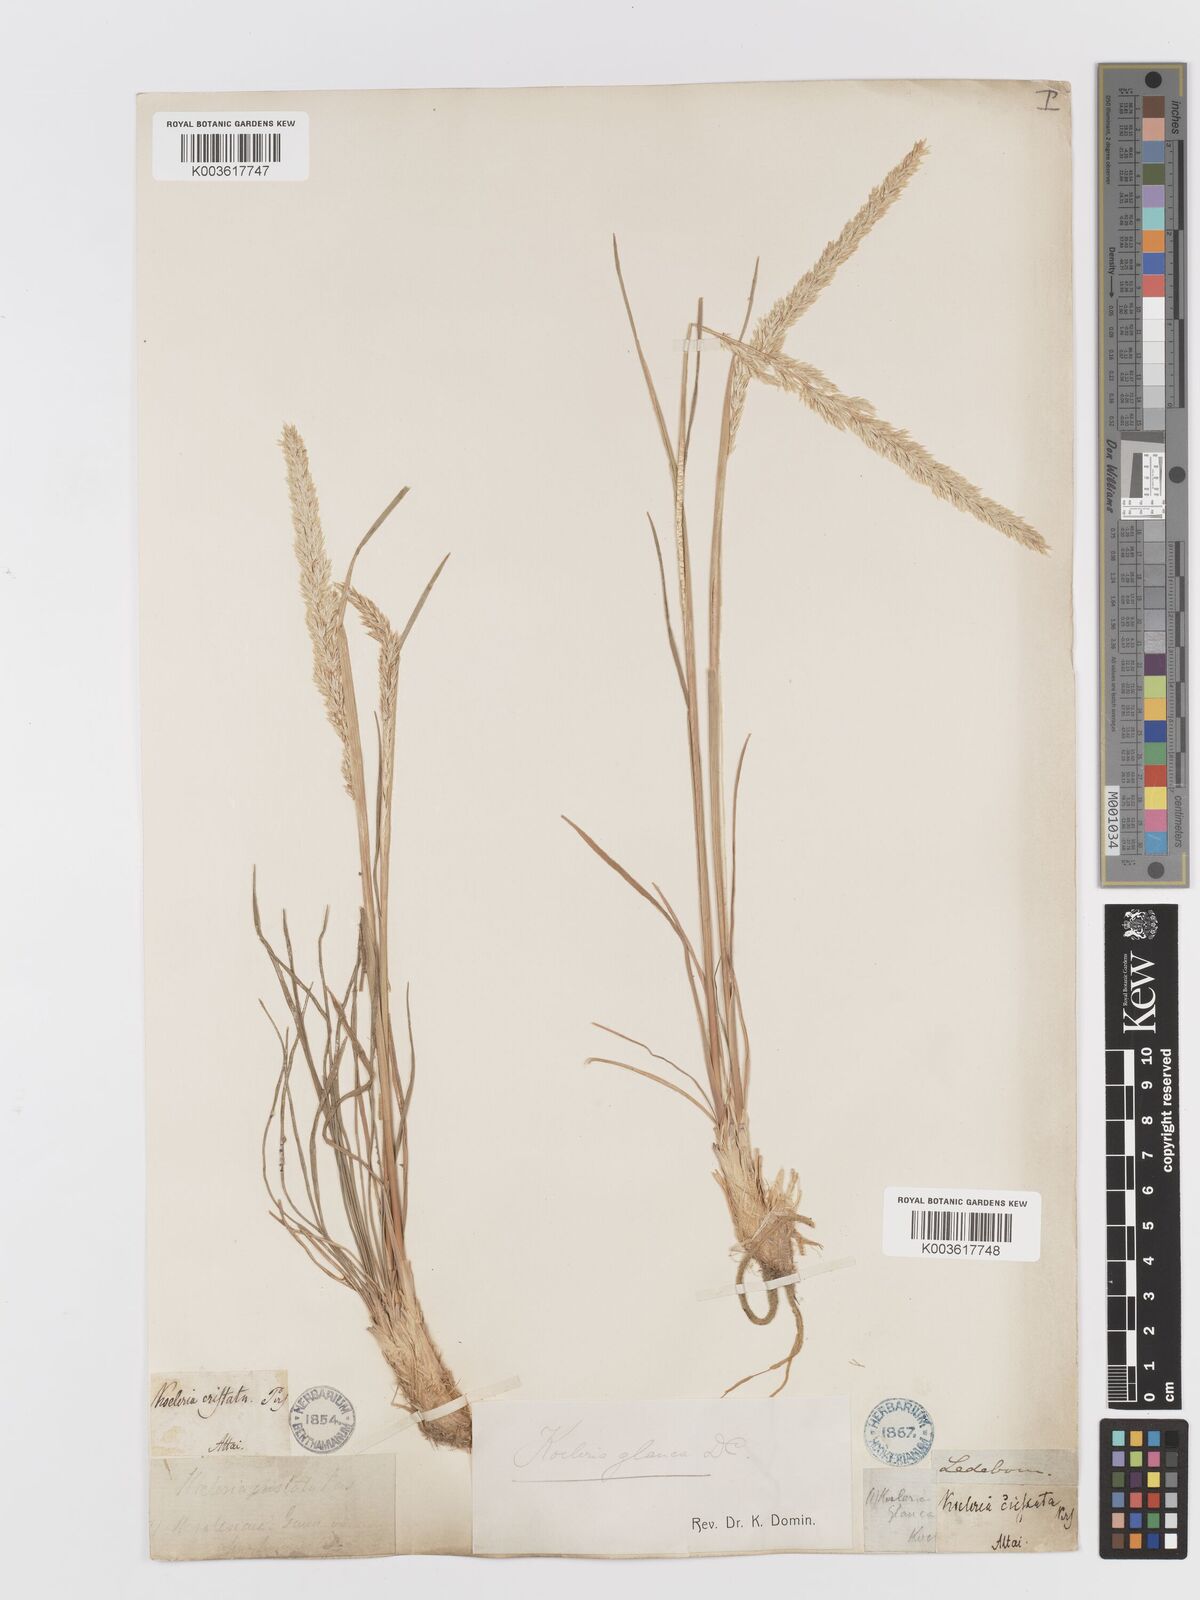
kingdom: Plantae
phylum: Tracheophyta
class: Liliopsida
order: Poales
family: Poaceae
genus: Koeleria
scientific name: Koeleria glauca
